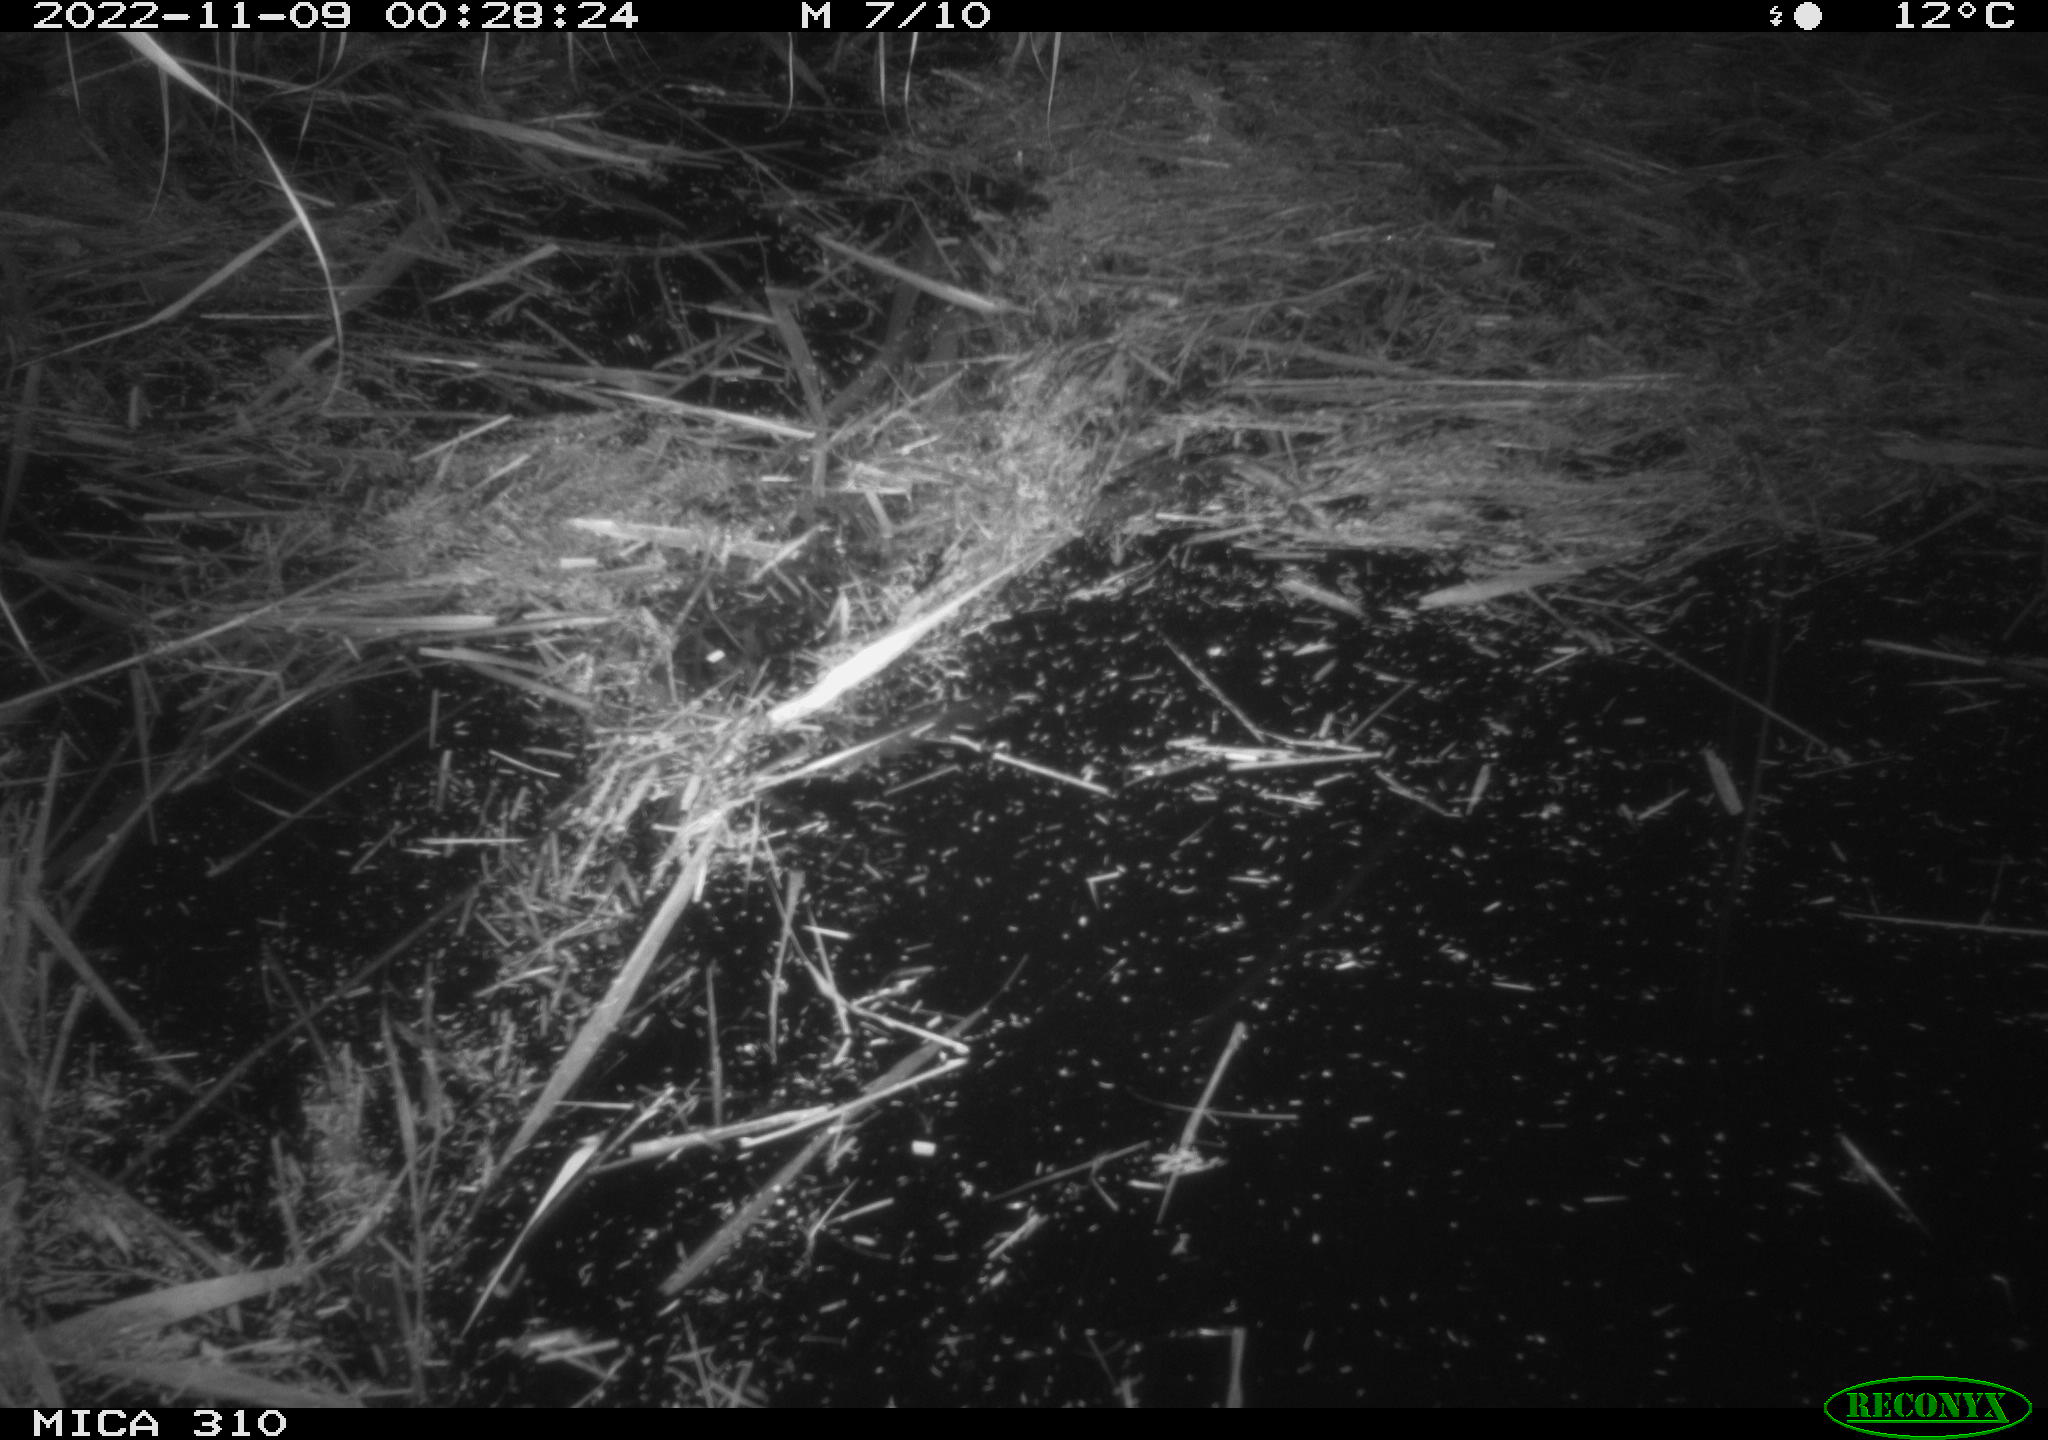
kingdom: Animalia
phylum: Chordata
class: Aves
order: Anseriformes
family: Anatidae
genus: Anas
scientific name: Anas
